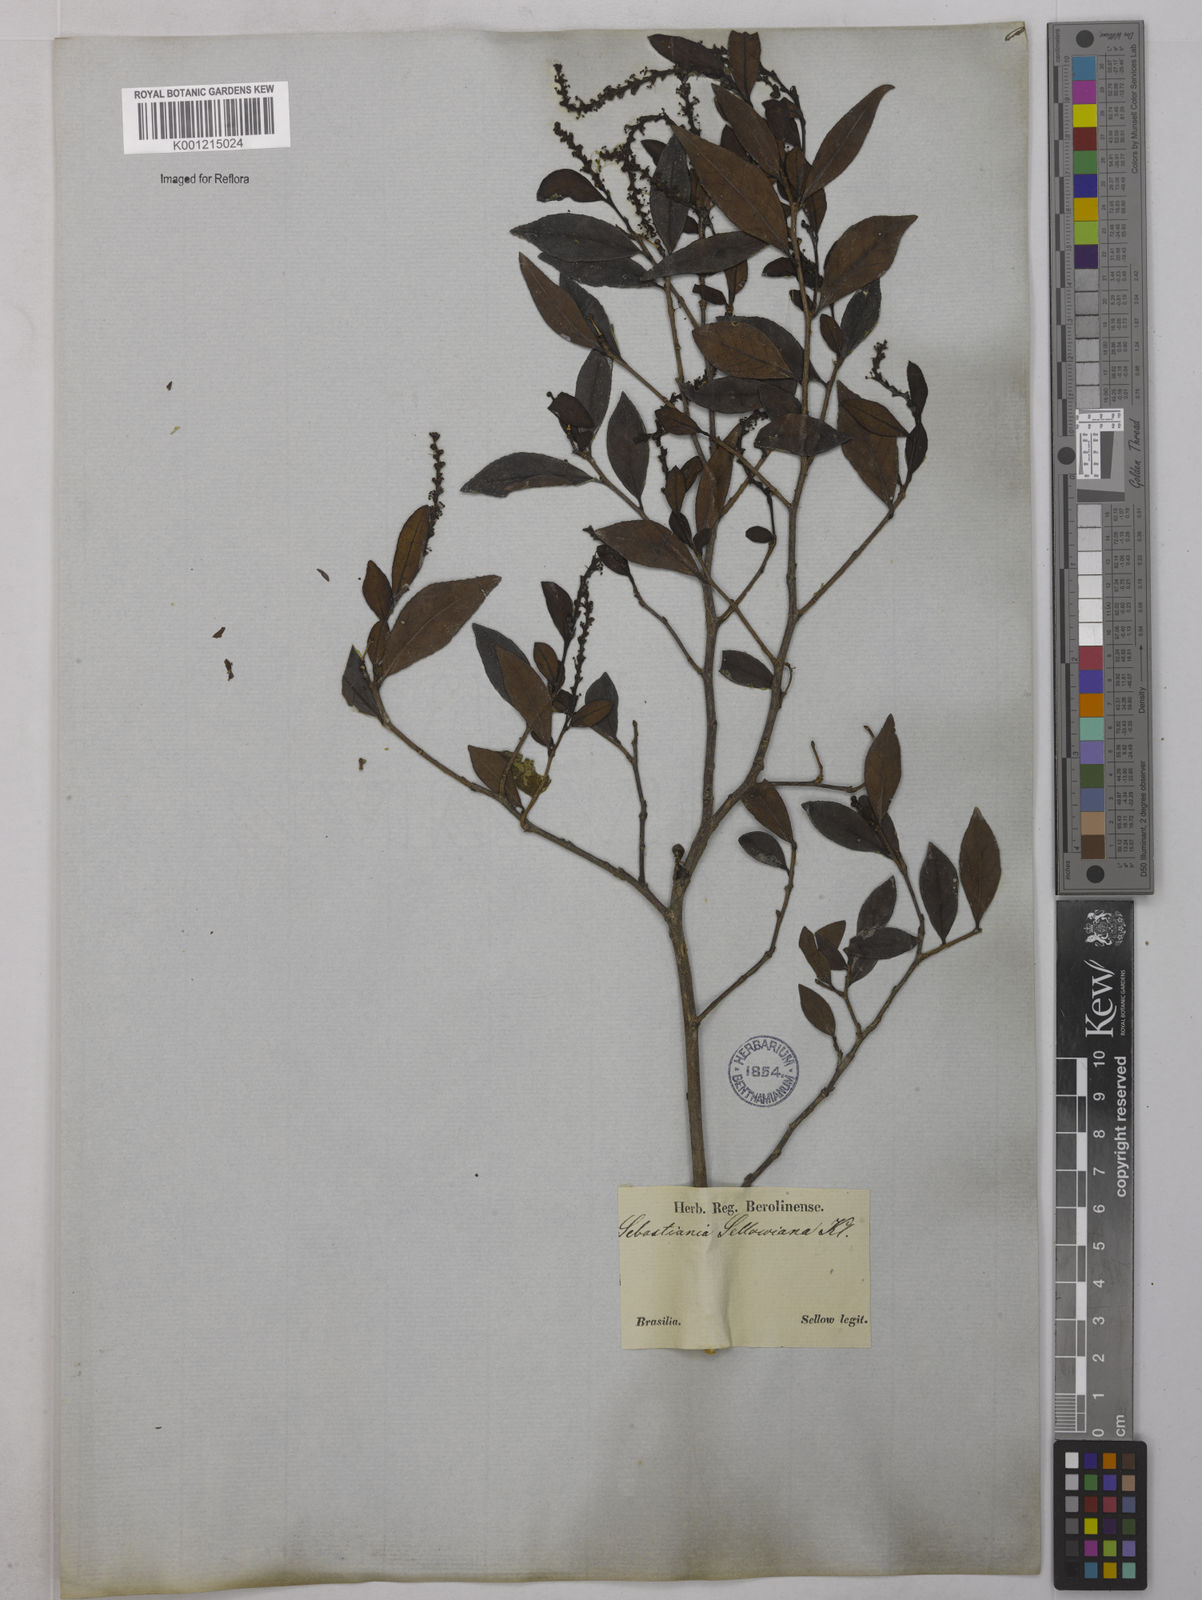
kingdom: Plantae
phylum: Tracheophyta
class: Magnoliopsida
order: Malpighiales
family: Euphorbiaceae
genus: Sebastiania
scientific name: Sebastiania brasiliensis
